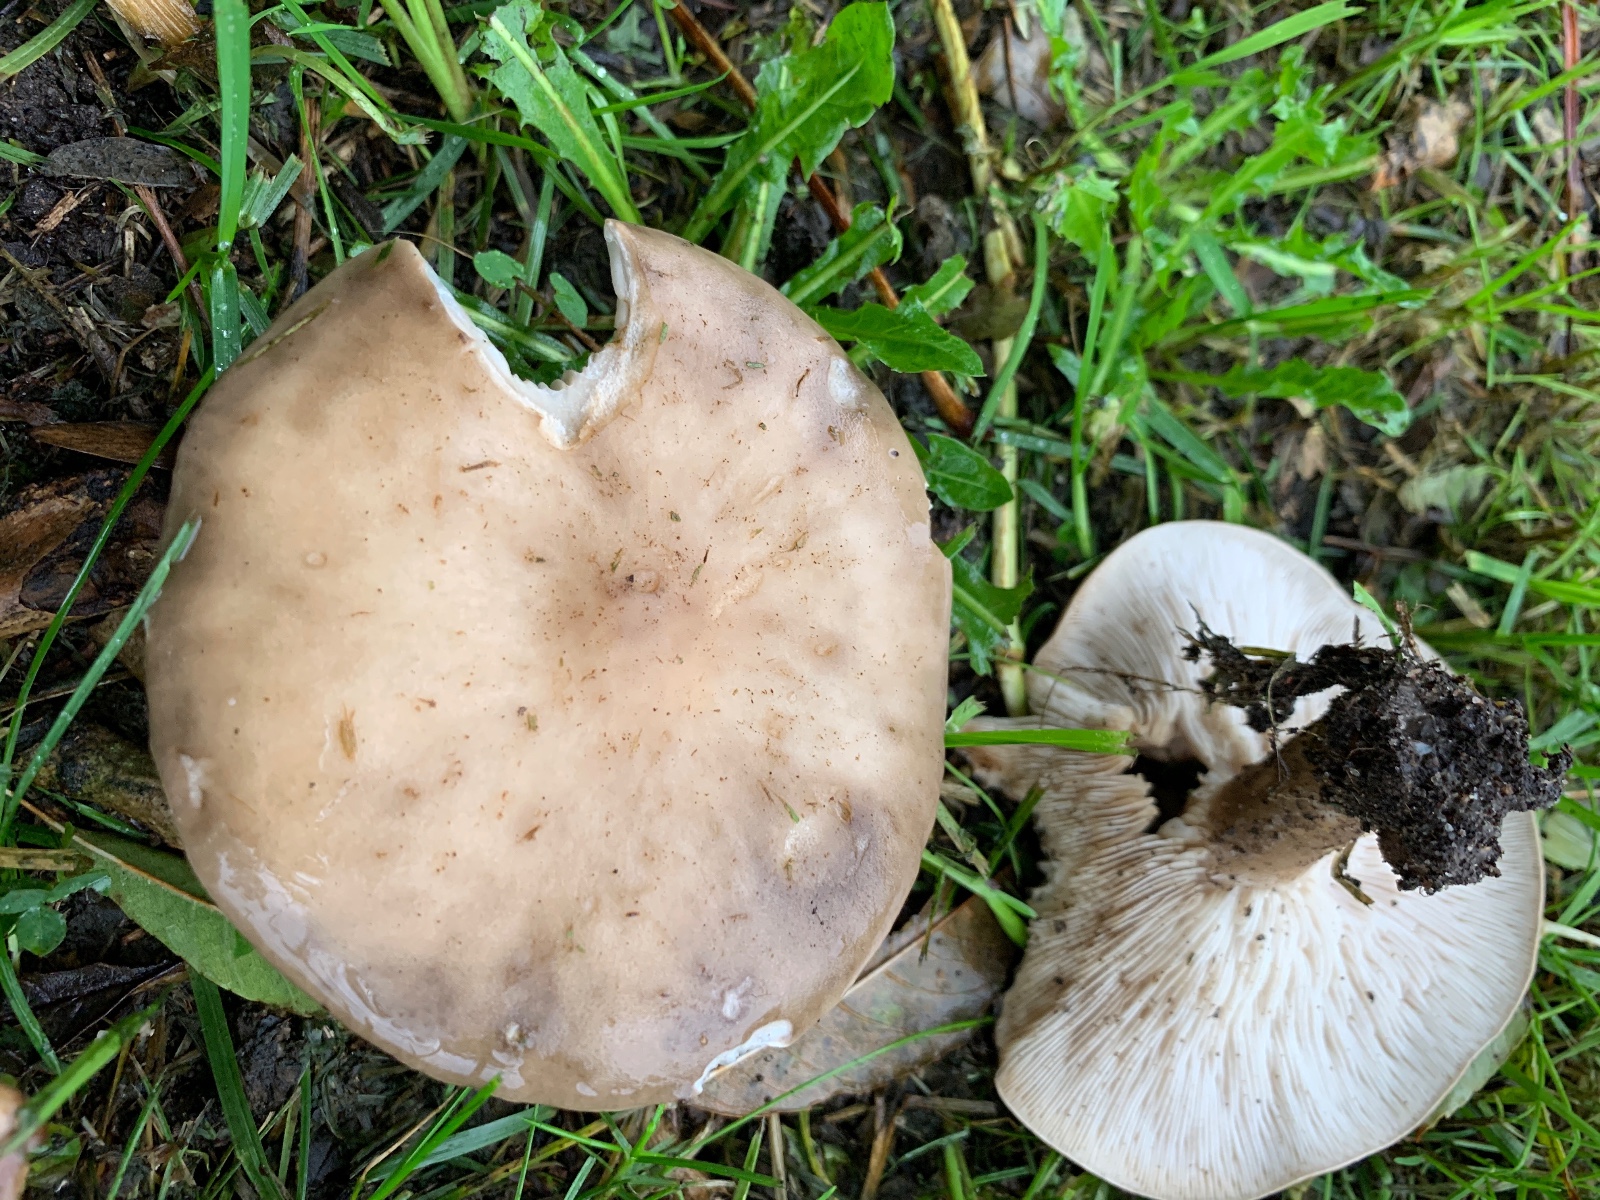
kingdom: Fungi
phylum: Basidiomycota
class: Agaricomycetes
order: Agaricales
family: Tricholomataceae
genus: Melanoleuca
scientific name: Melanoleuca
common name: munkehat
